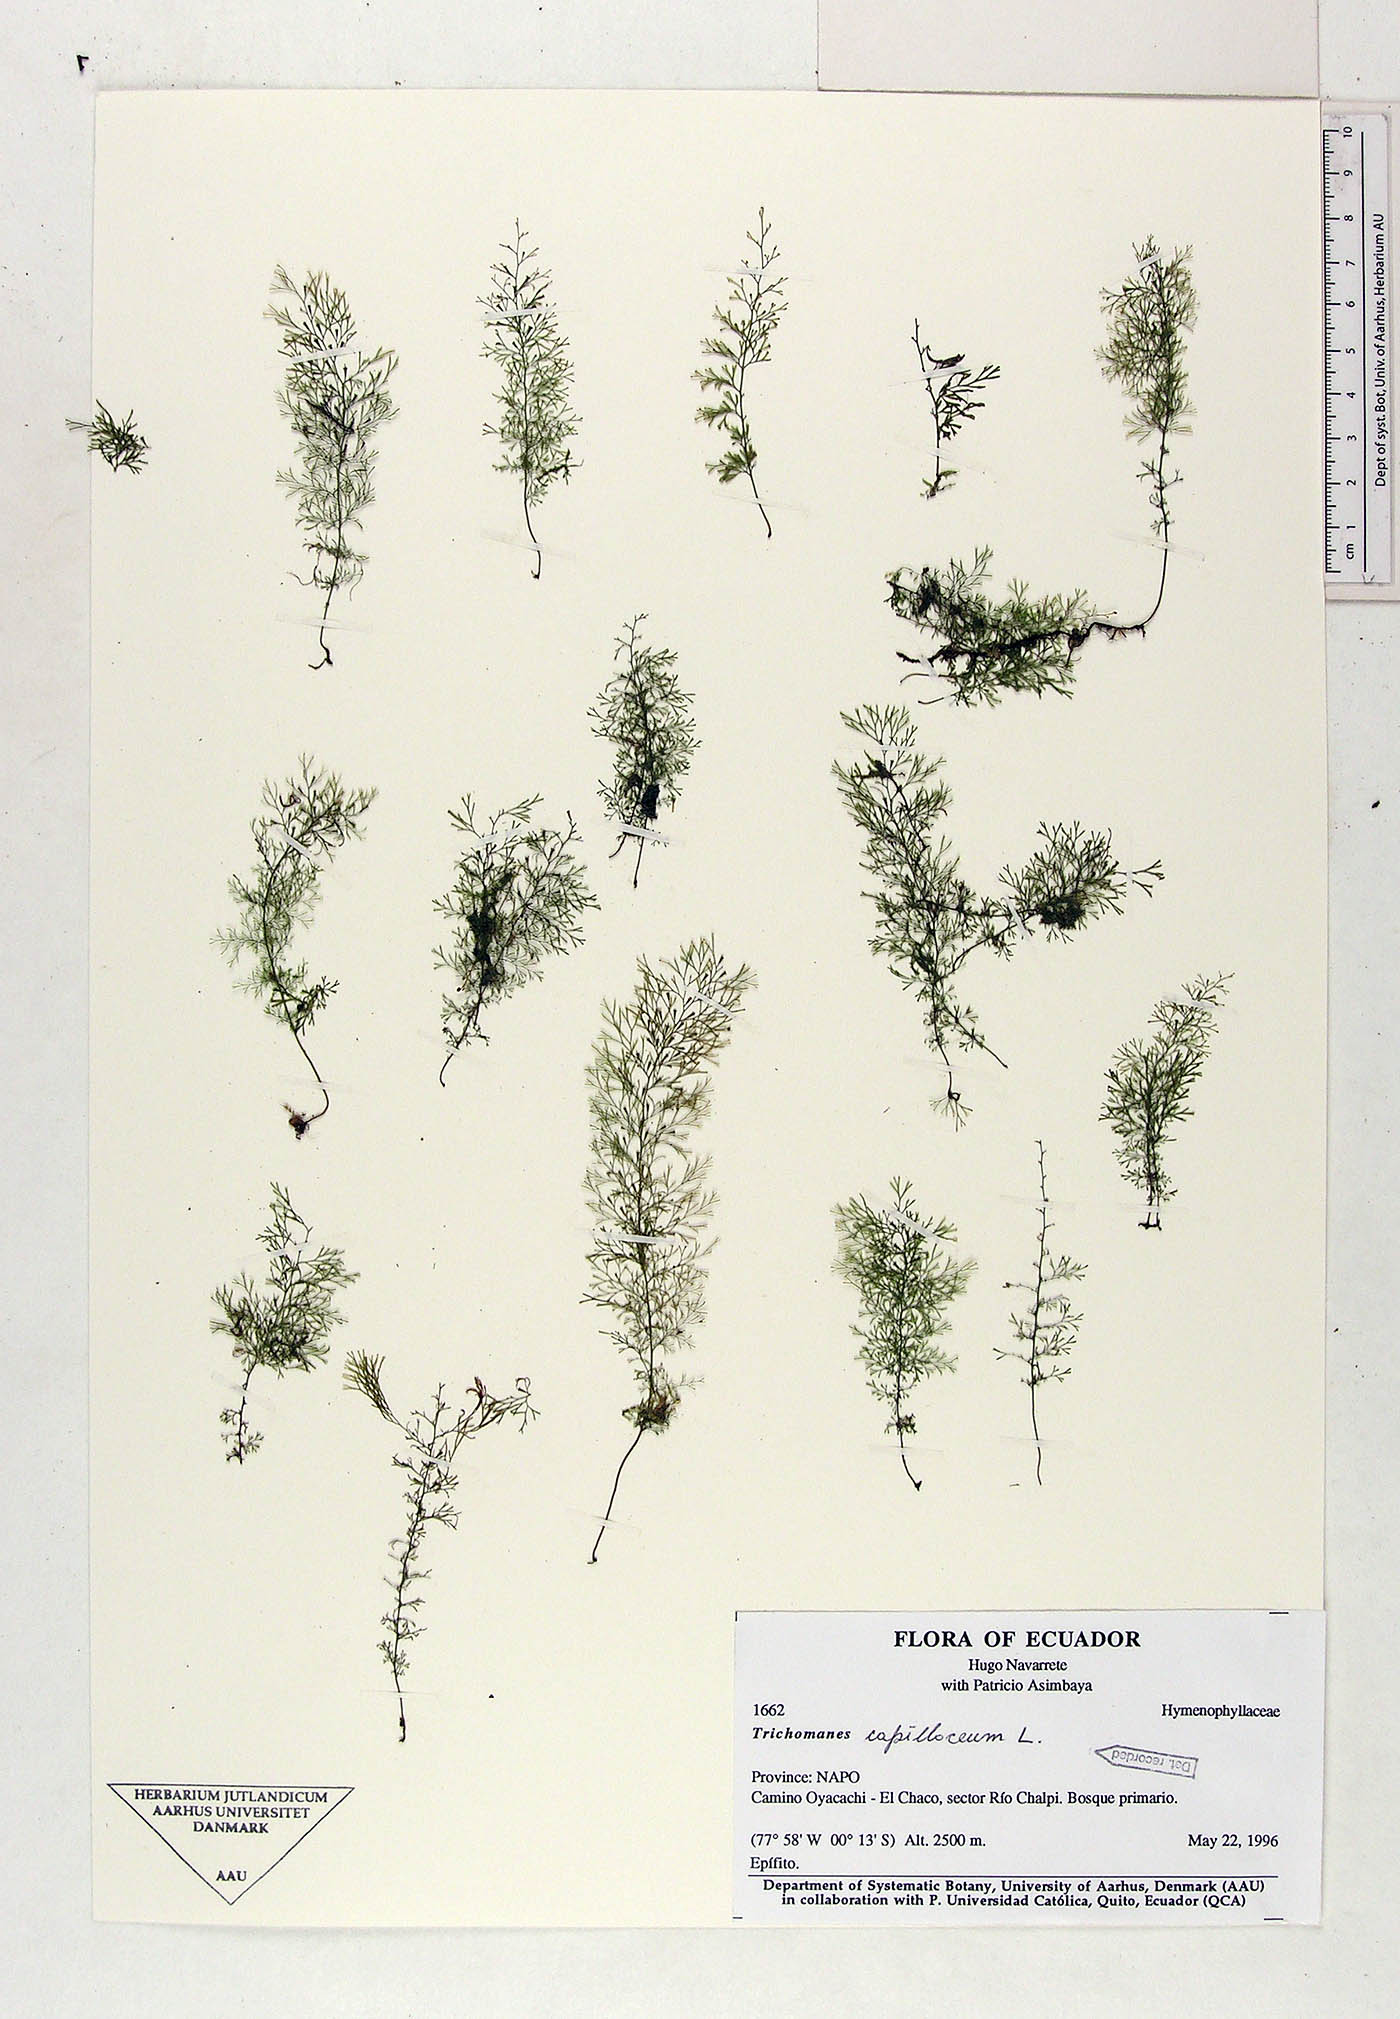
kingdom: Plantae
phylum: Tracheophyta
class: Polypodiopsida
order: Hymenophyllales
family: Hymenophyllaceae
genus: Trichomanes
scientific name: Trichomanes
